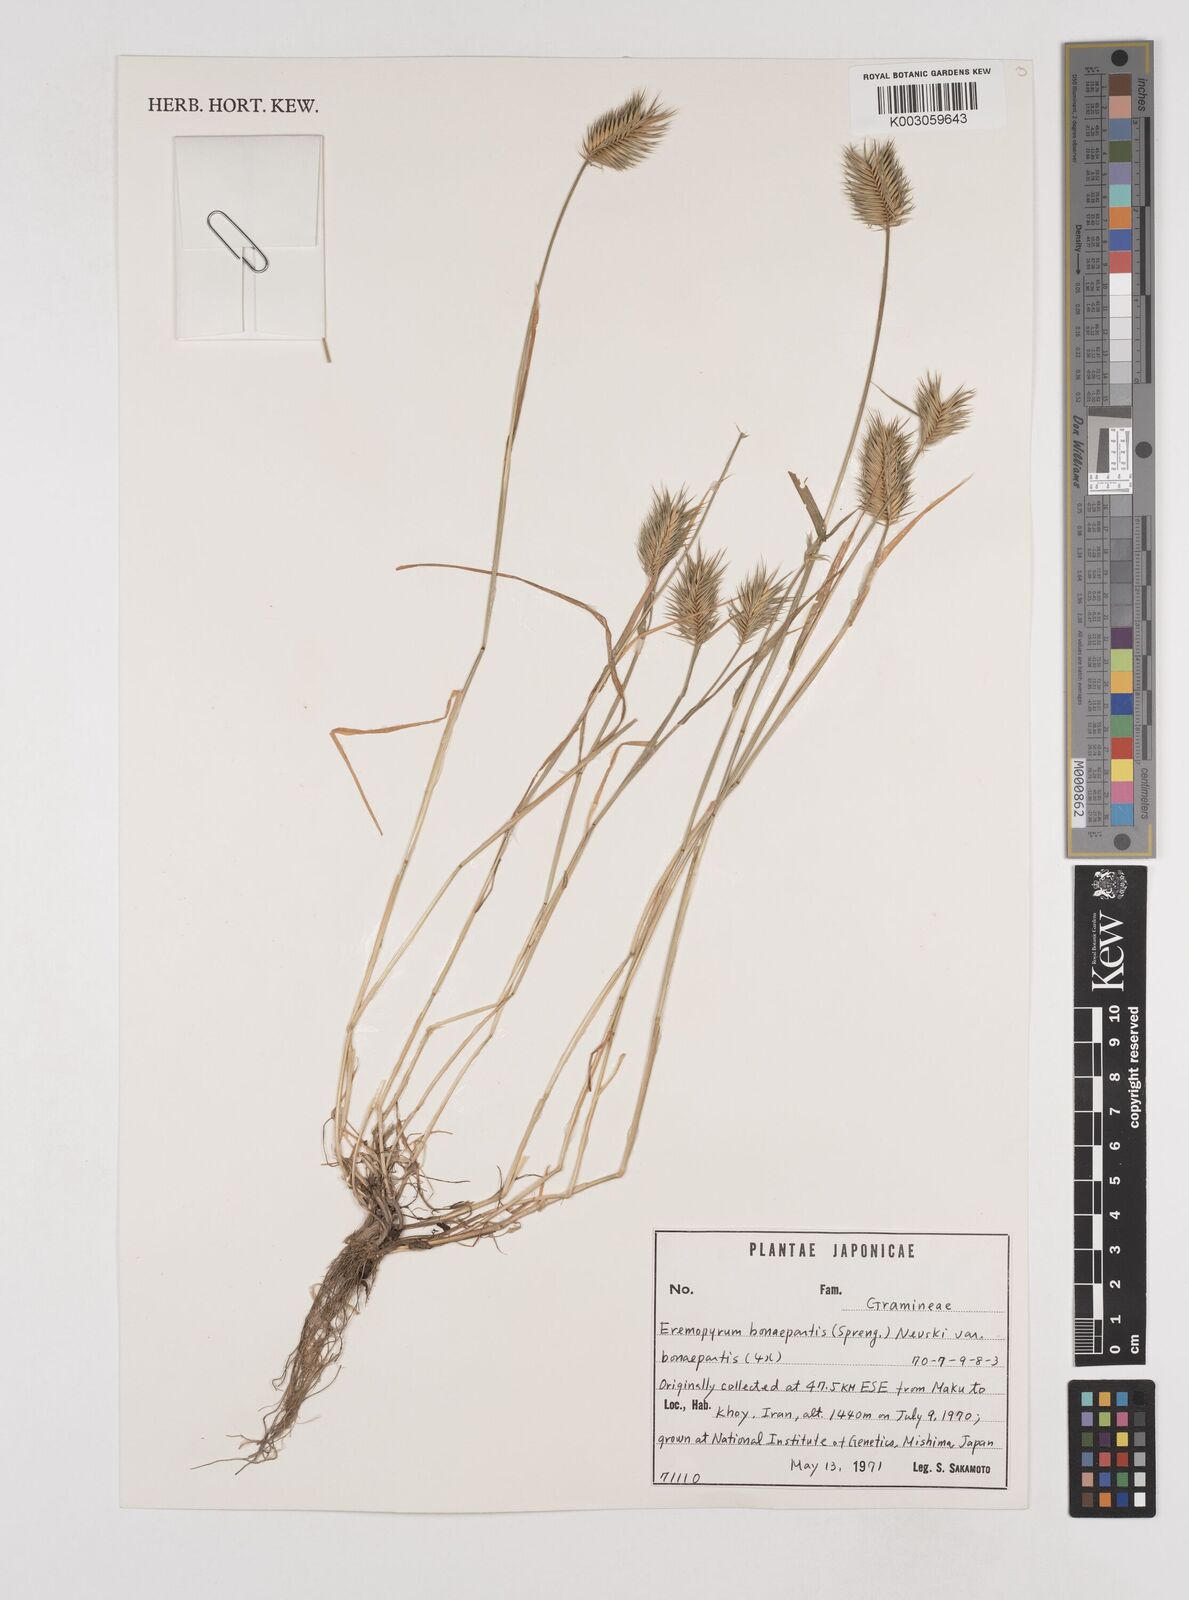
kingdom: Plantae
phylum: Tracheophyta
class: Liliopsida
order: Poales
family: Poaceae
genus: Eremopyrum
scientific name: Eremopyrum bonaepartis
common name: Tapertip false wheatgrass
